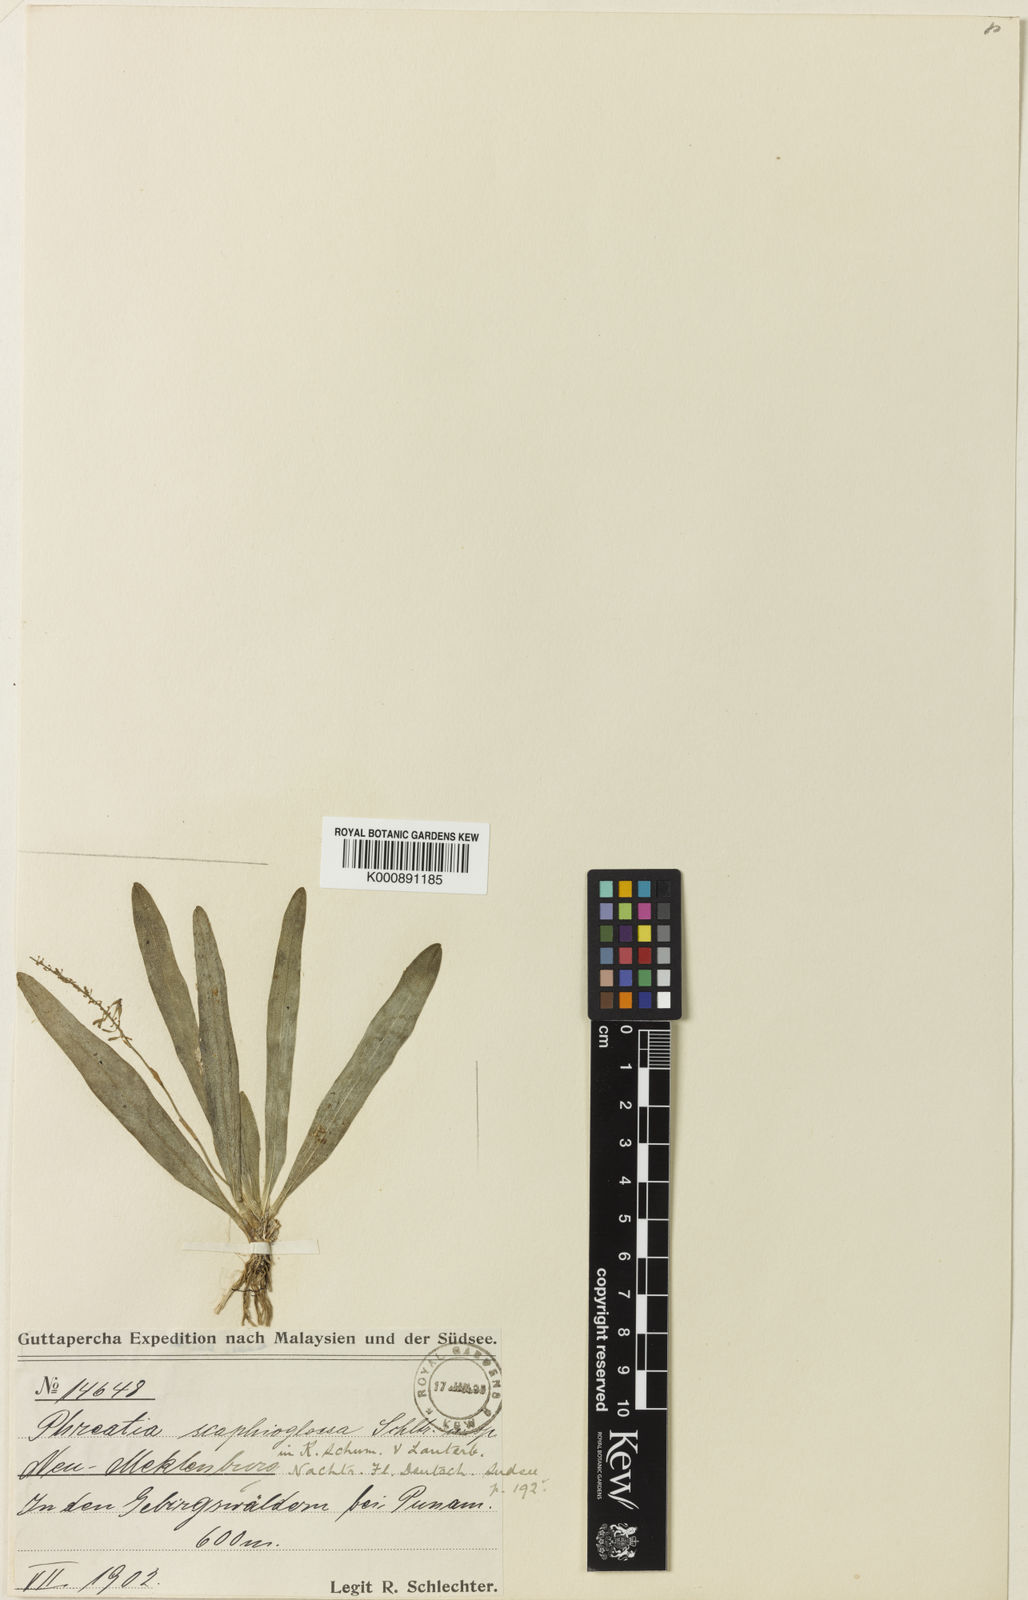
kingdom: Plantae
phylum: Tracheophyta
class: Liliopsida
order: Asparagales
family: Orchidaceae
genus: Phreatia
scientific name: Phreatia scaphioglossa
